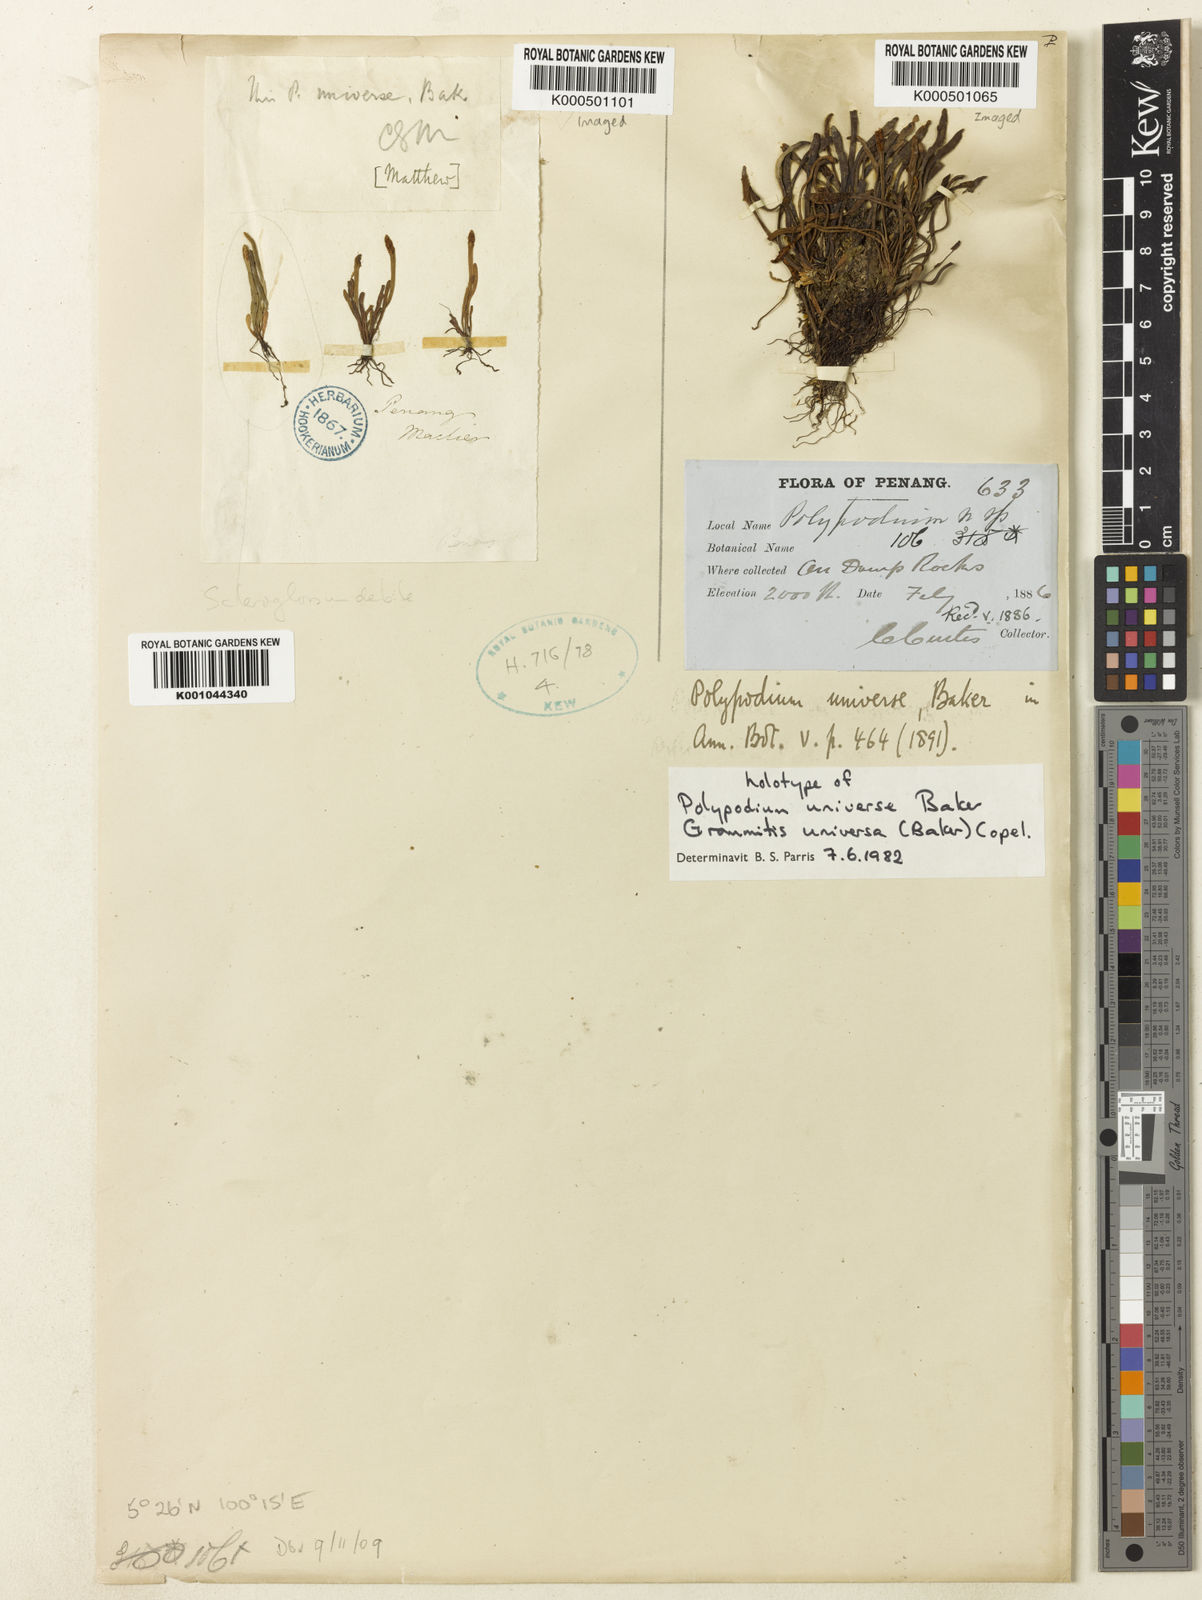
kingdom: Plantae
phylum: Tracheophyta
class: Polypodiopsida
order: Polypodiales
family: Polypodiaceae
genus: Oreogrammitis
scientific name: Oreogrammitis universa
